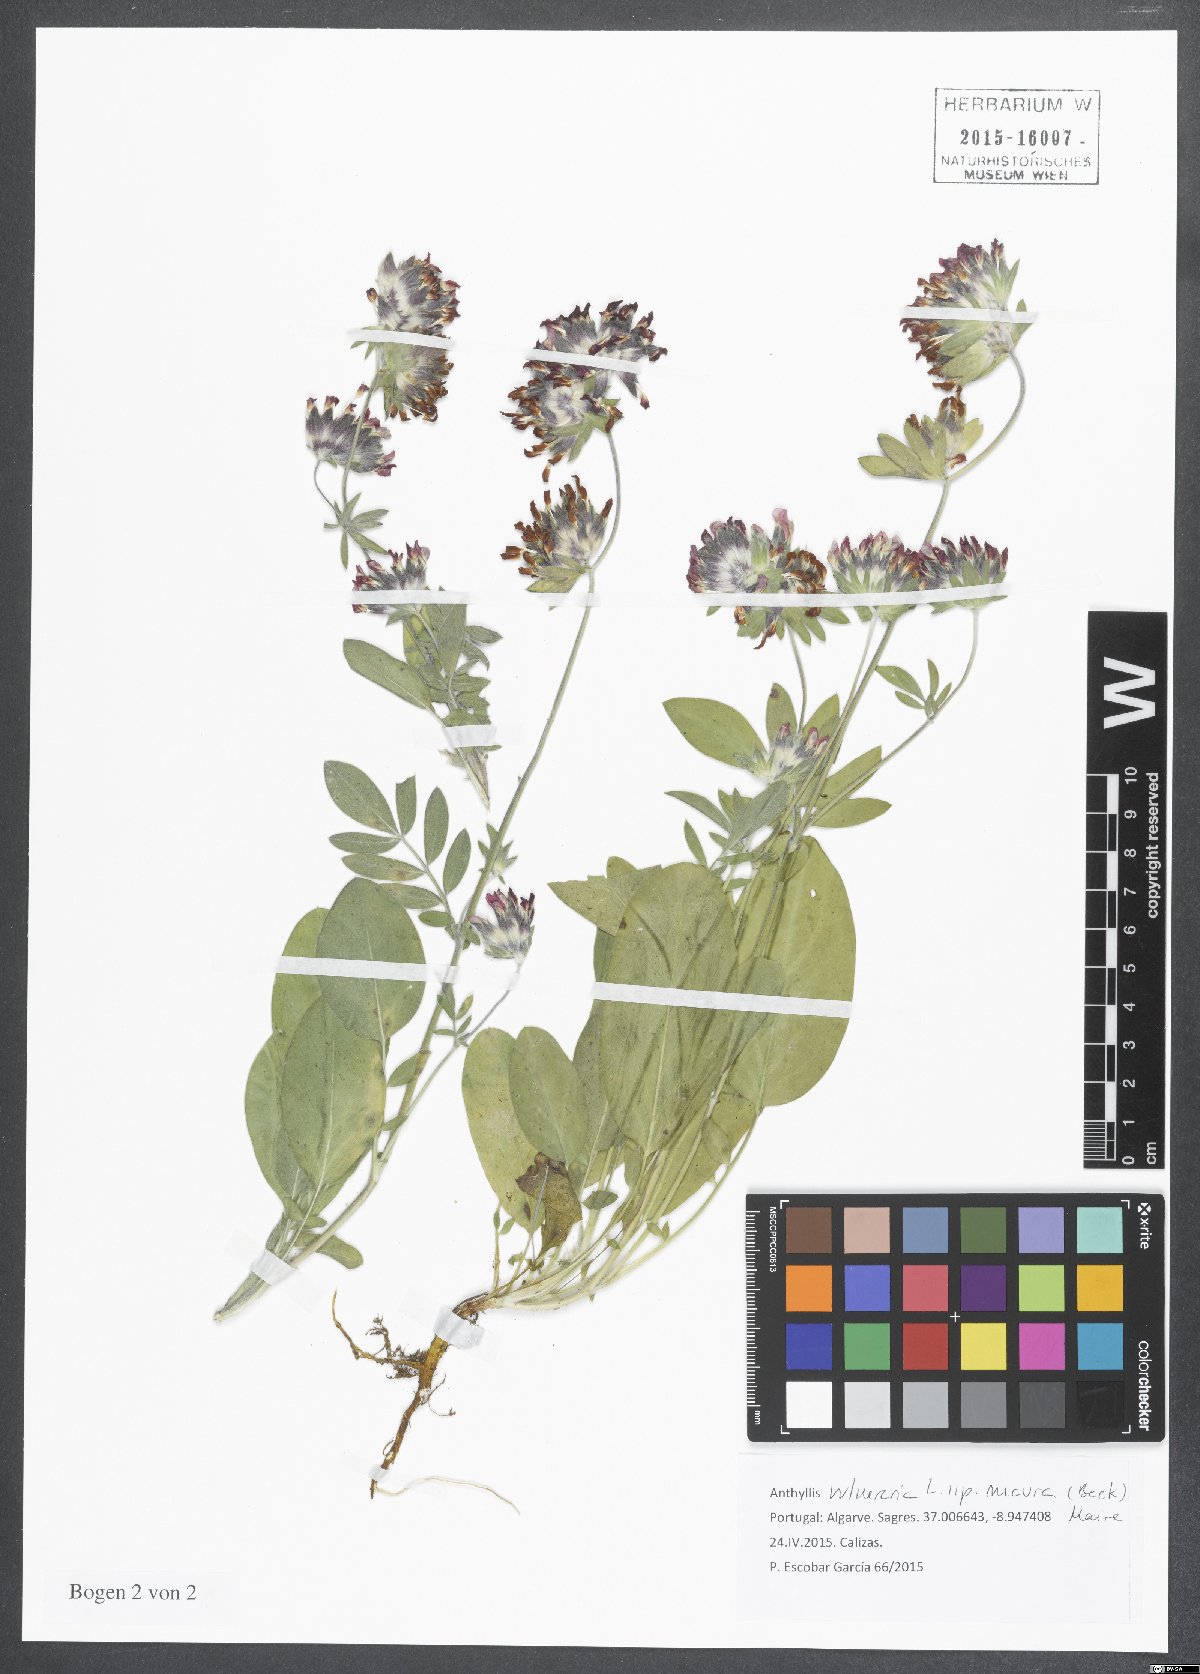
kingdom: Plantae
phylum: Tracheophyta
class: Magnoliopsida
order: Fabales
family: Fabaceae
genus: Anthyllis
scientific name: Anthyllis vulneraria
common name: Kidney vetch
